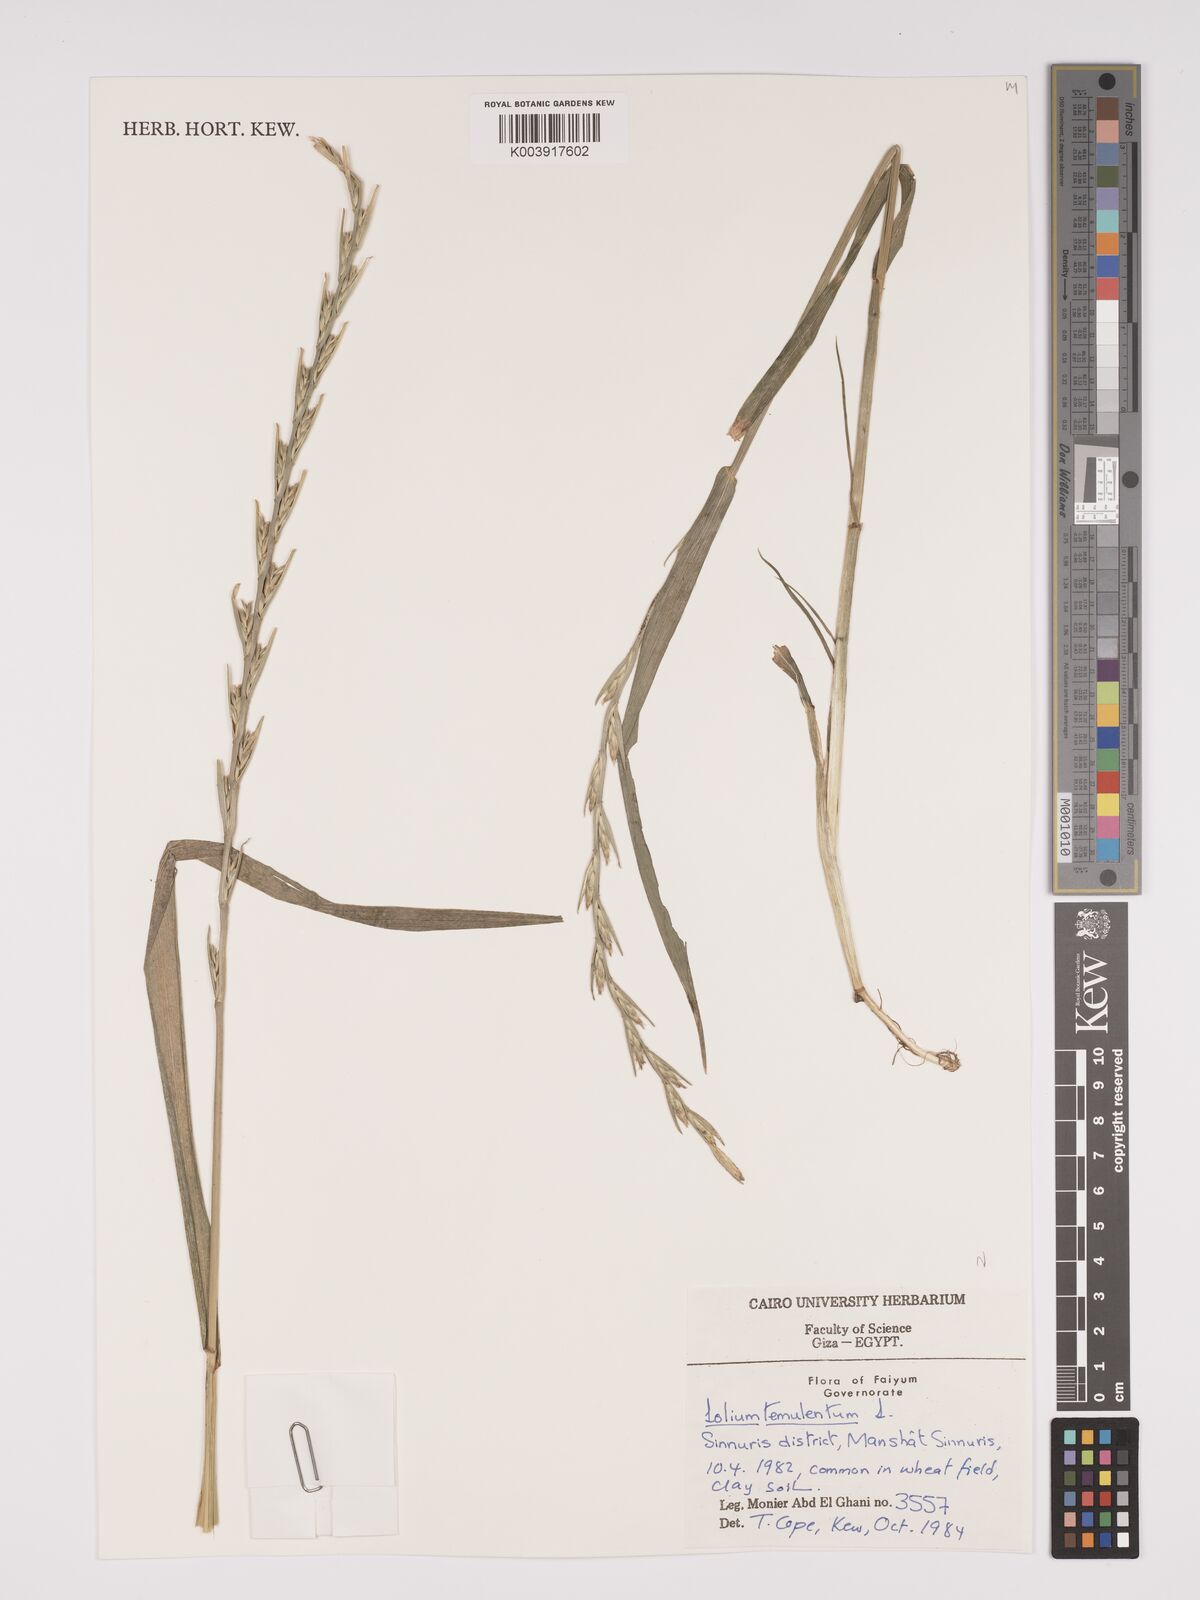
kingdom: Plantae
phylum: Tracheophyta
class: Liliopsida
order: Poales
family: Poaceae
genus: Lolium
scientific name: Lolium temulentum
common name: Darnel
